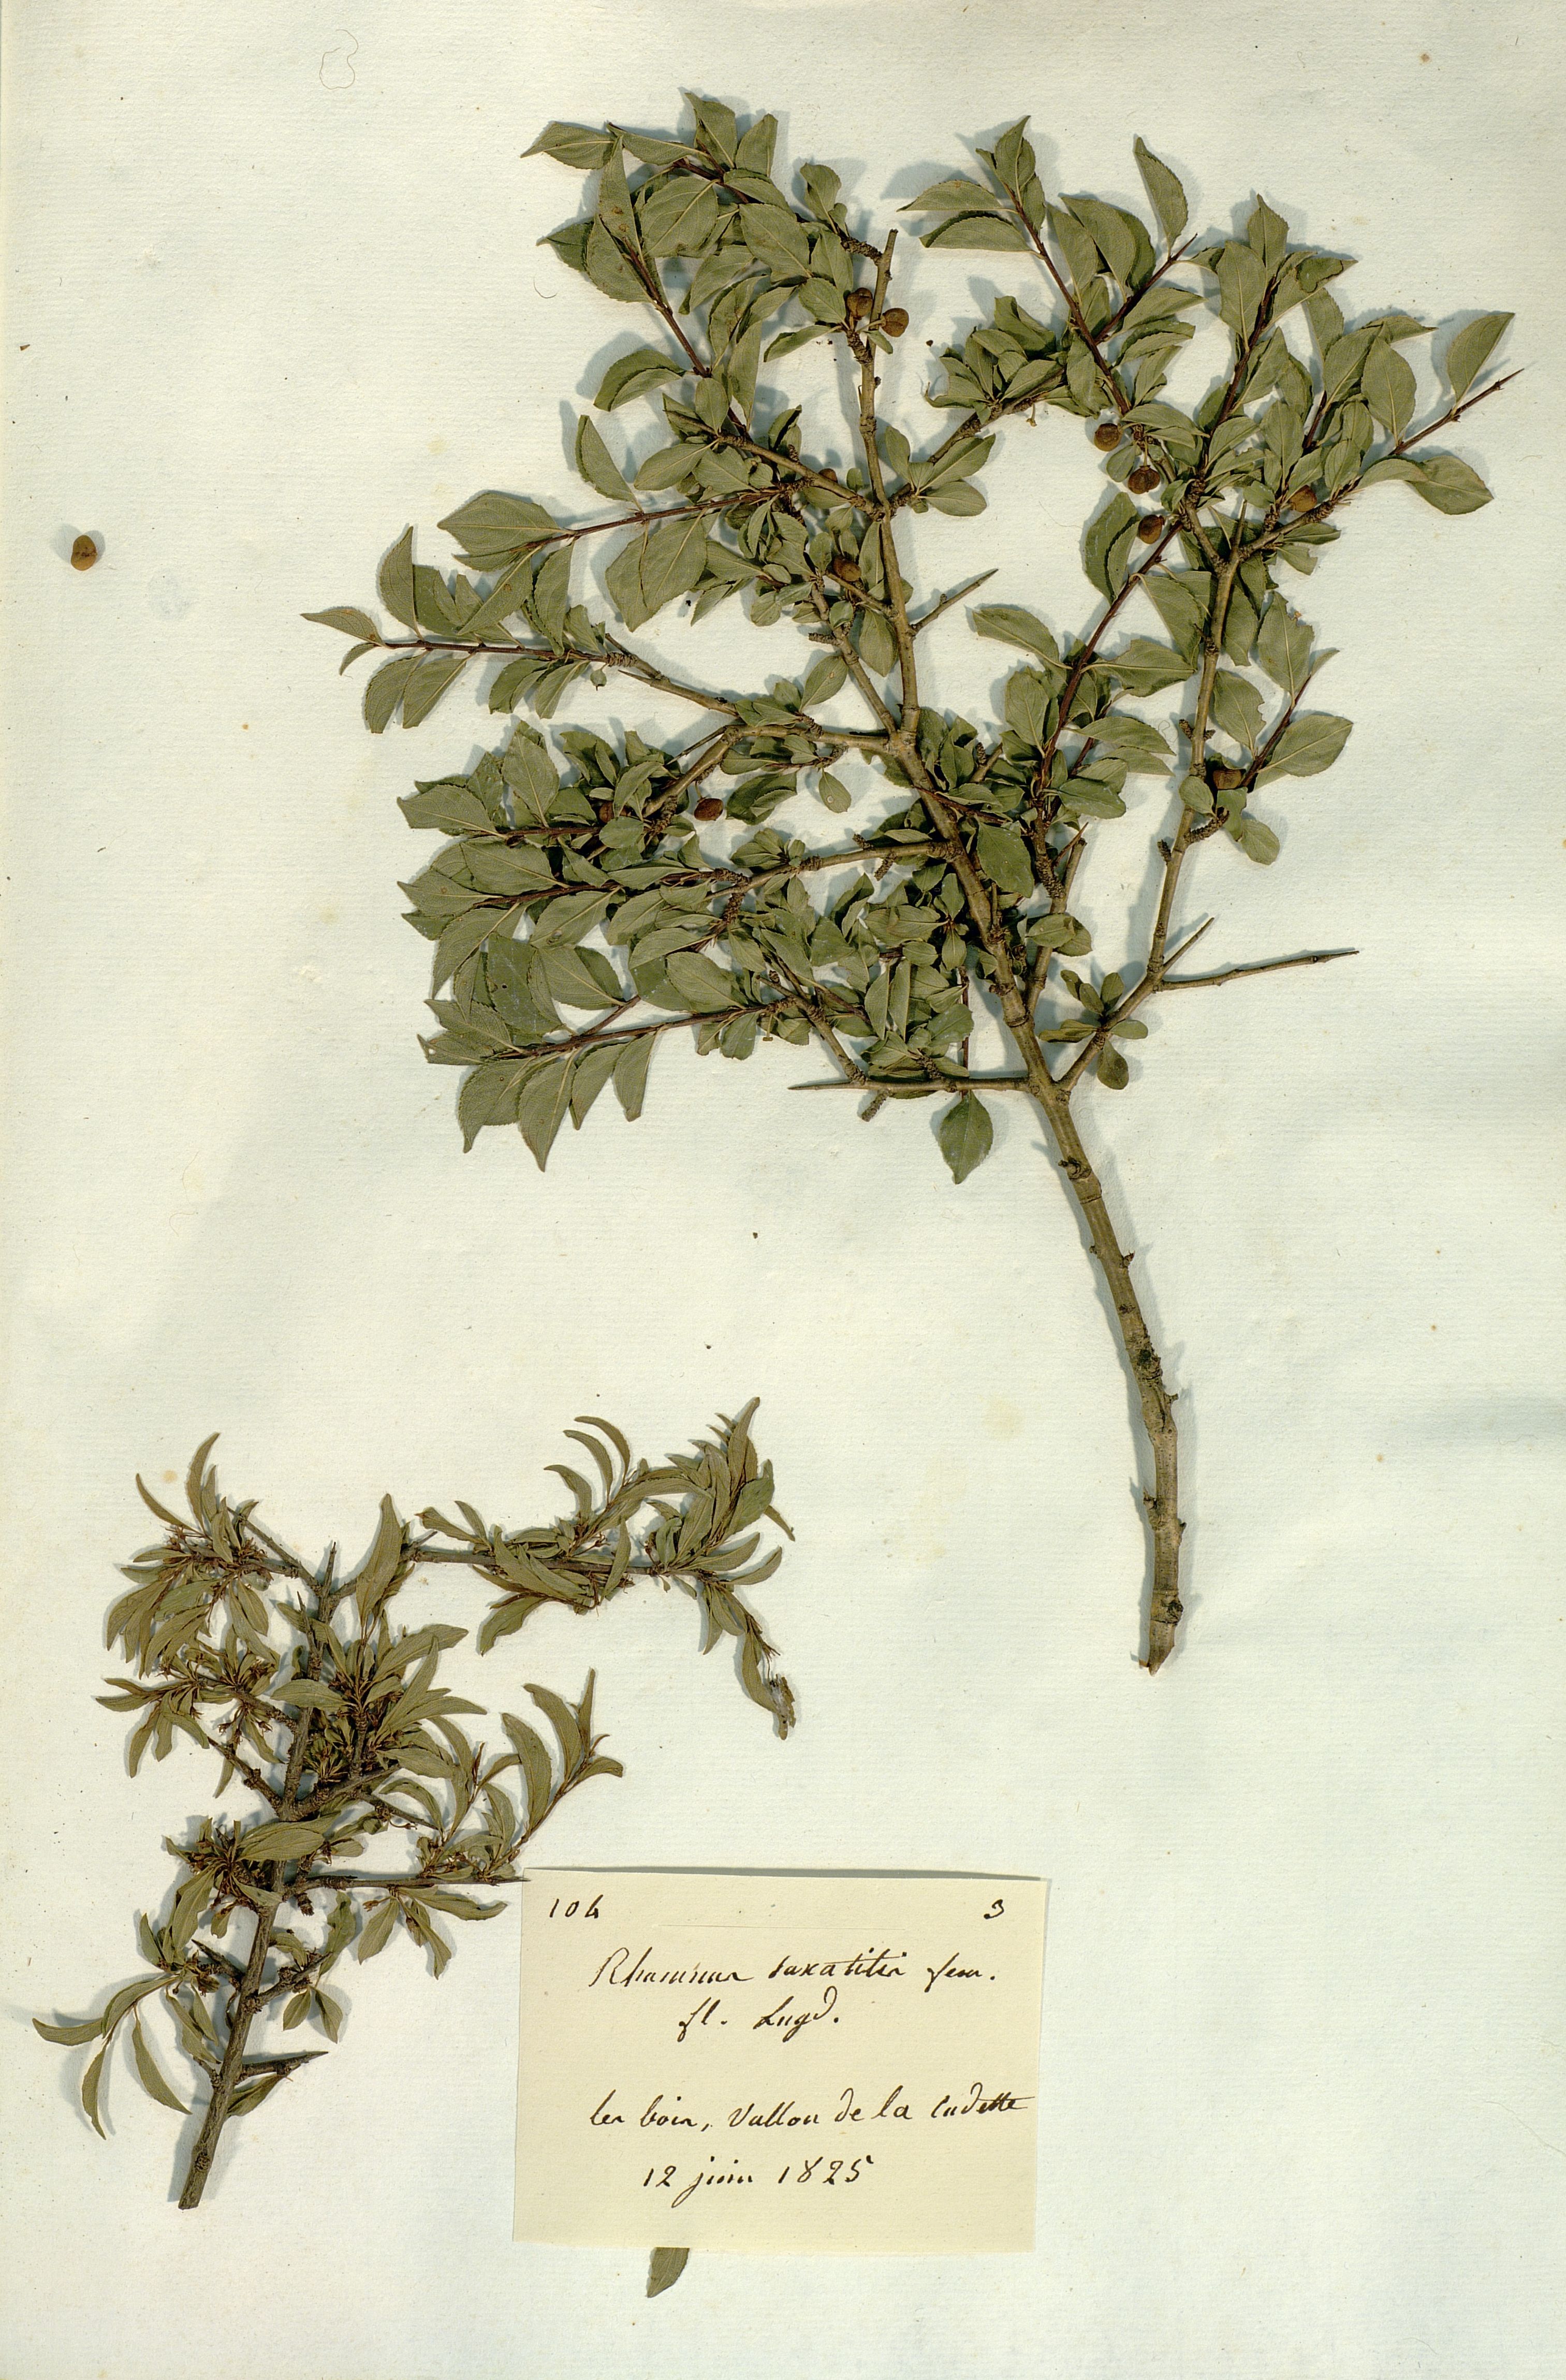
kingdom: Plantae
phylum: Tracheophyta
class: Magnoliopsida
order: Rosales
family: Rhamnaceae
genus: Rhamnus
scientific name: Rhamnus saxatilis
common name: Rock buckthorn
